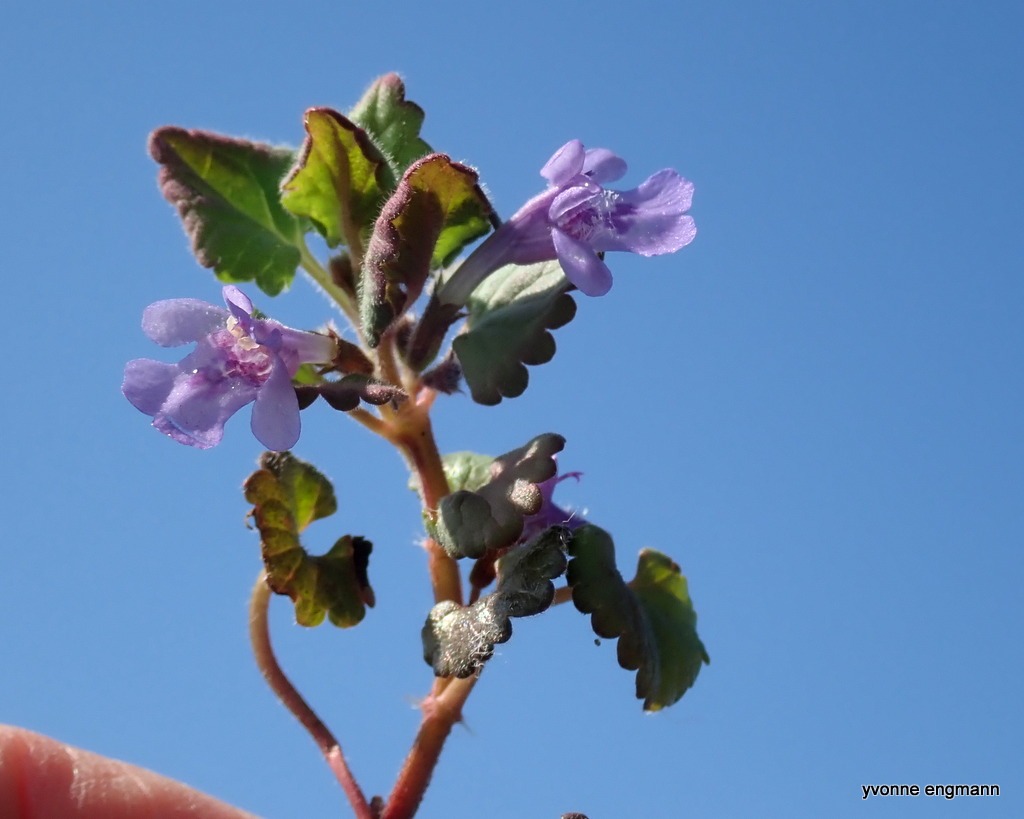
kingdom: Plantae
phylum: Tracheophyta
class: Magnoliopsida
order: Lamiales
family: Lamiaceae
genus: Glechoma
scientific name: Glechoma hederacea
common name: Korsknap
